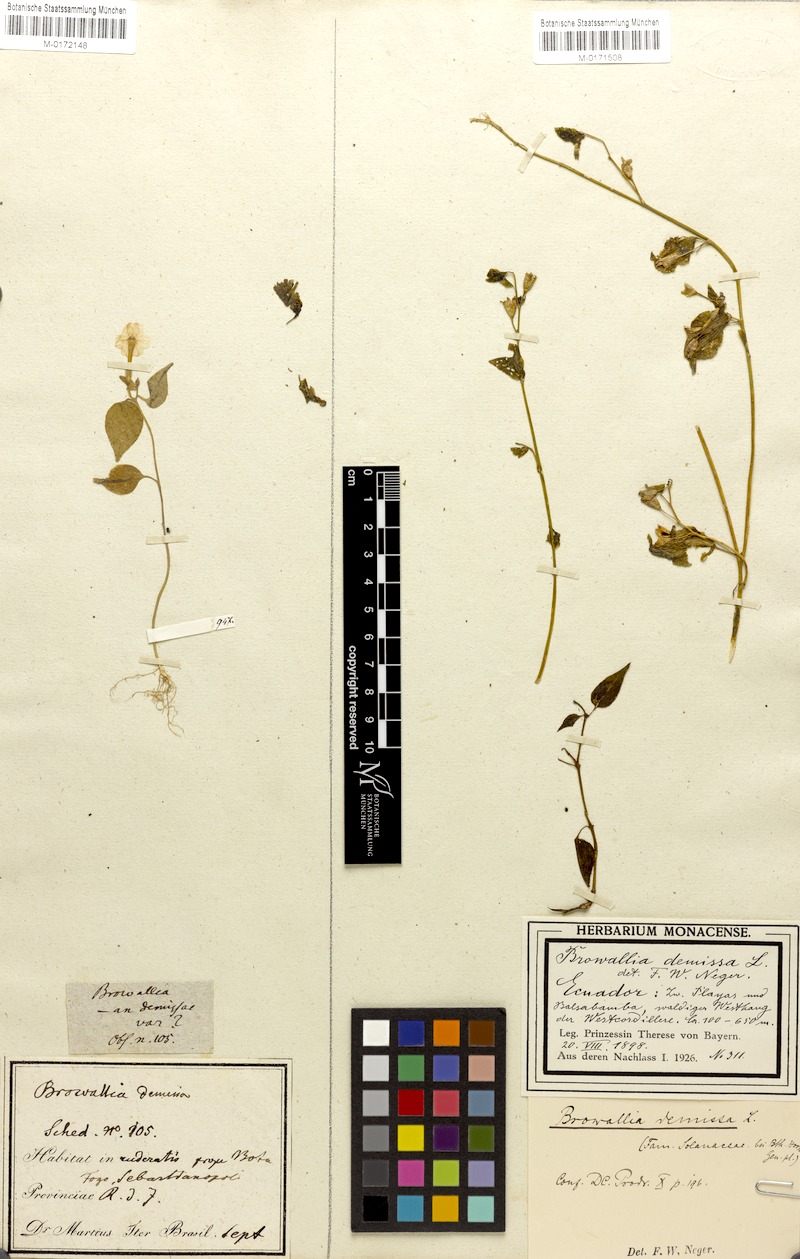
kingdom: Plantae
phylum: Tracheophyta
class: Magnoliopsida
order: Solanales
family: Solanaceae
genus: Browallia
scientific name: Browallia americana
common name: Jamaican forget-me-not
